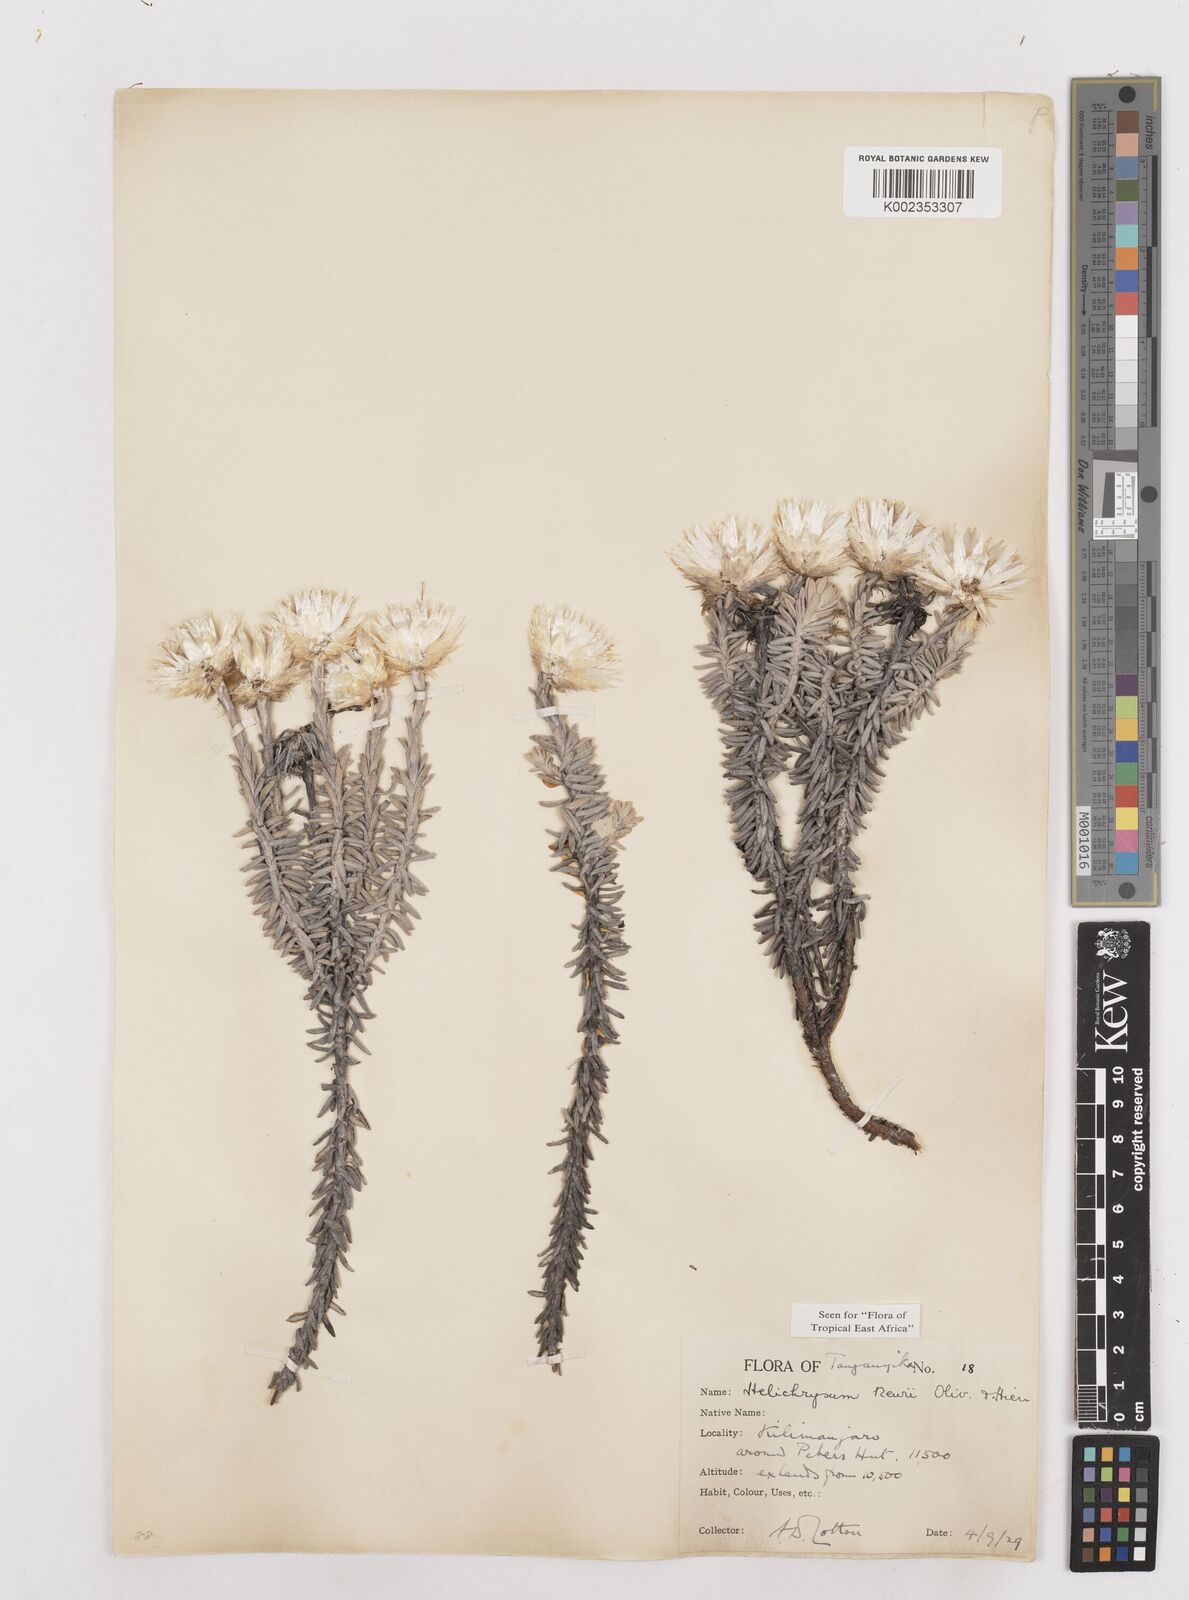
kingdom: Plantae
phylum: Tracheophyta
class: Magnoliopsida
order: Asterales
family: Asteraceae
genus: Helichrysum
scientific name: Helichrysum newii
